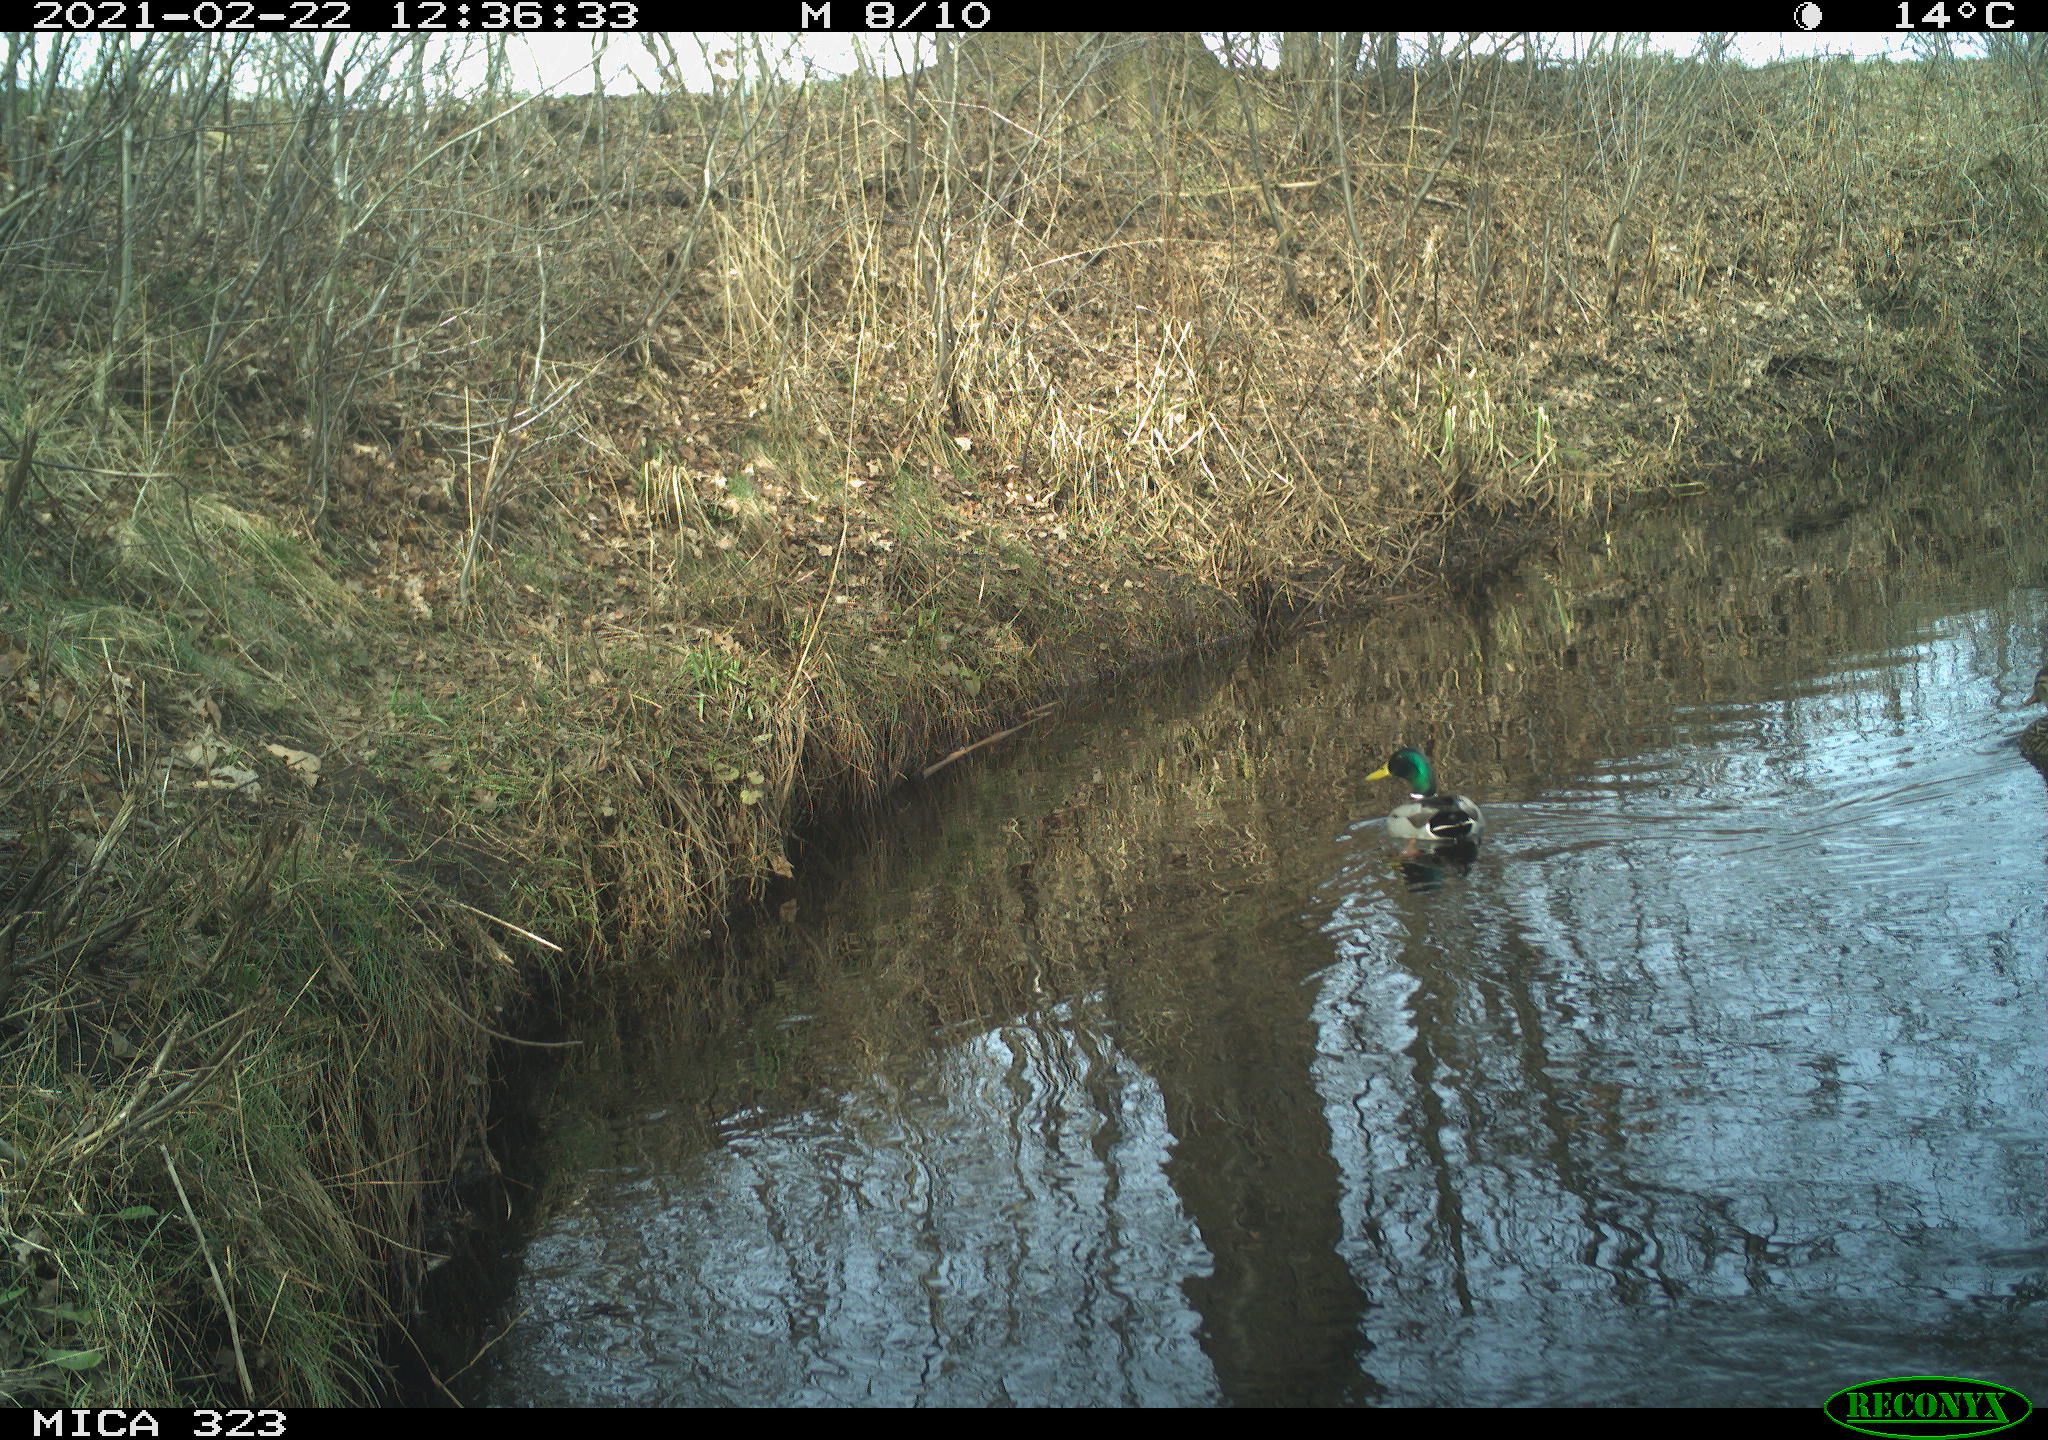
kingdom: Animalia
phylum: Chordata
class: Aves
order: Anseriformes
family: Anatidae
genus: Anas
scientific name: Anas platyrhynchos
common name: Mallard
